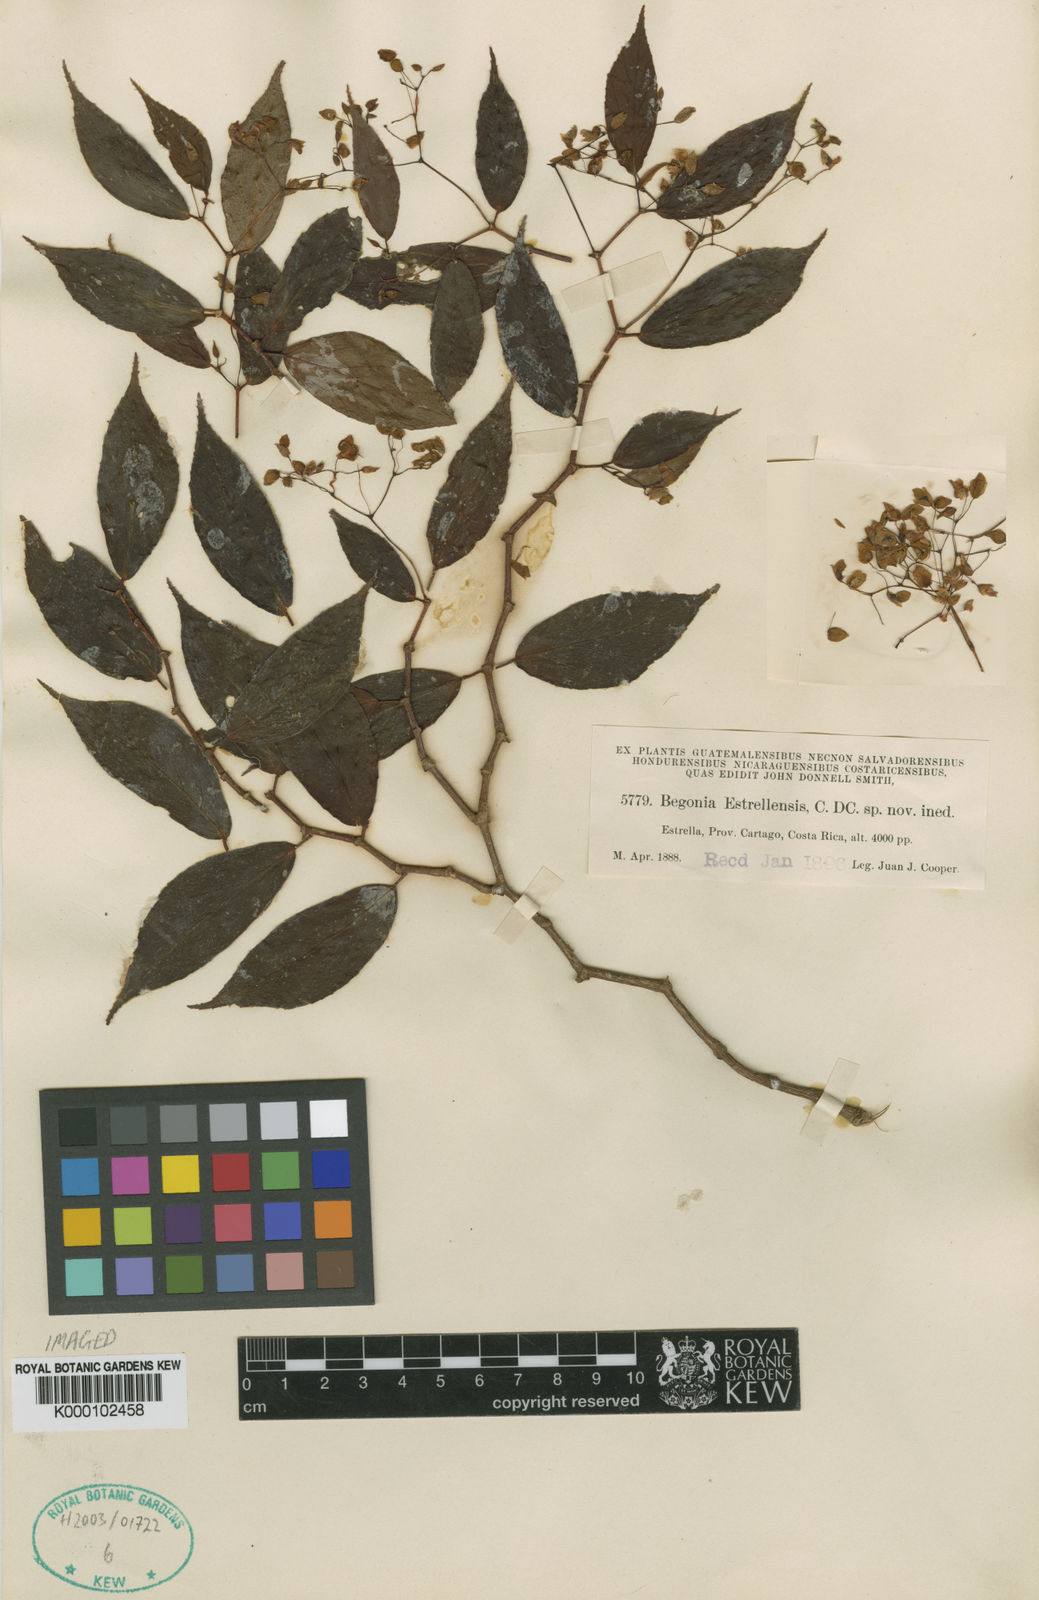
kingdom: Plantae
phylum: Tracheophyta
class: Magnoliopsida
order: Cucurbitales
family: Begoniaceae
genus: Begonia
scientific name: Begonia estrellensis
